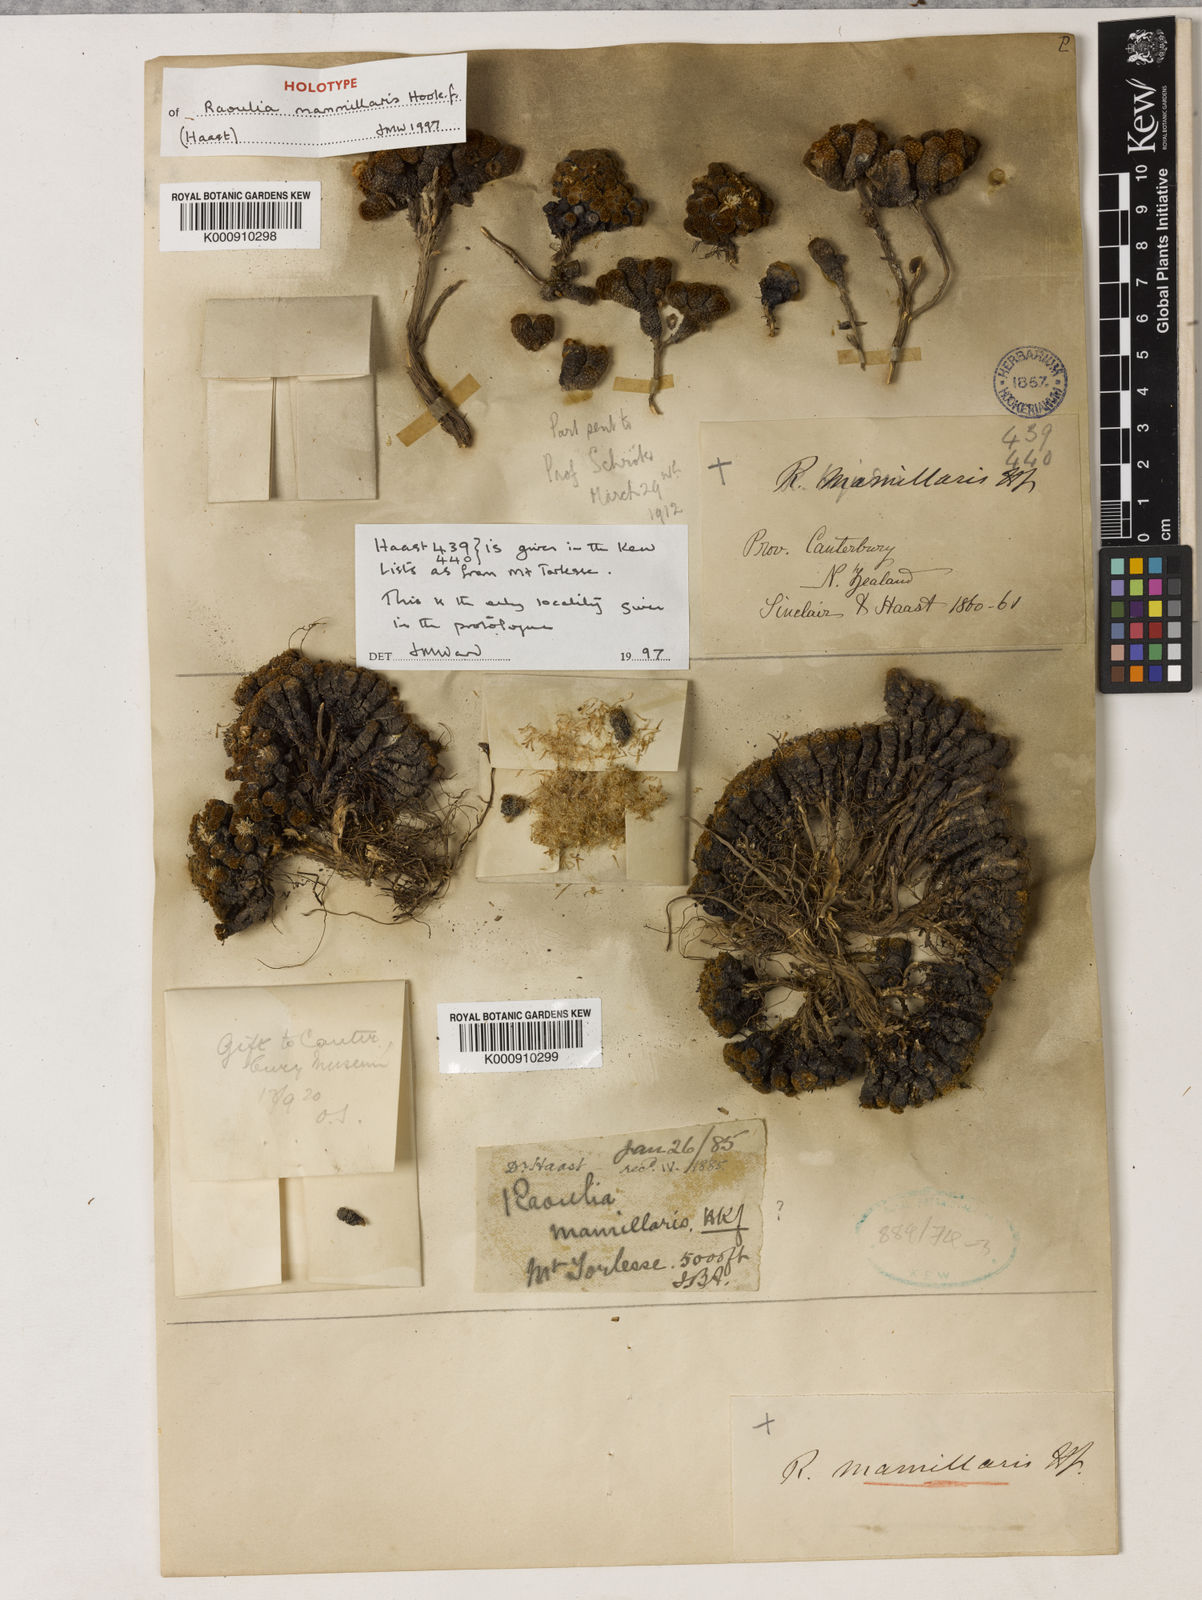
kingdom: Plantae
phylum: Tracheophyta
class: Magnoliopsida
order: Asterales
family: Asteraceae
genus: Raoulia
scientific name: Raoulia
